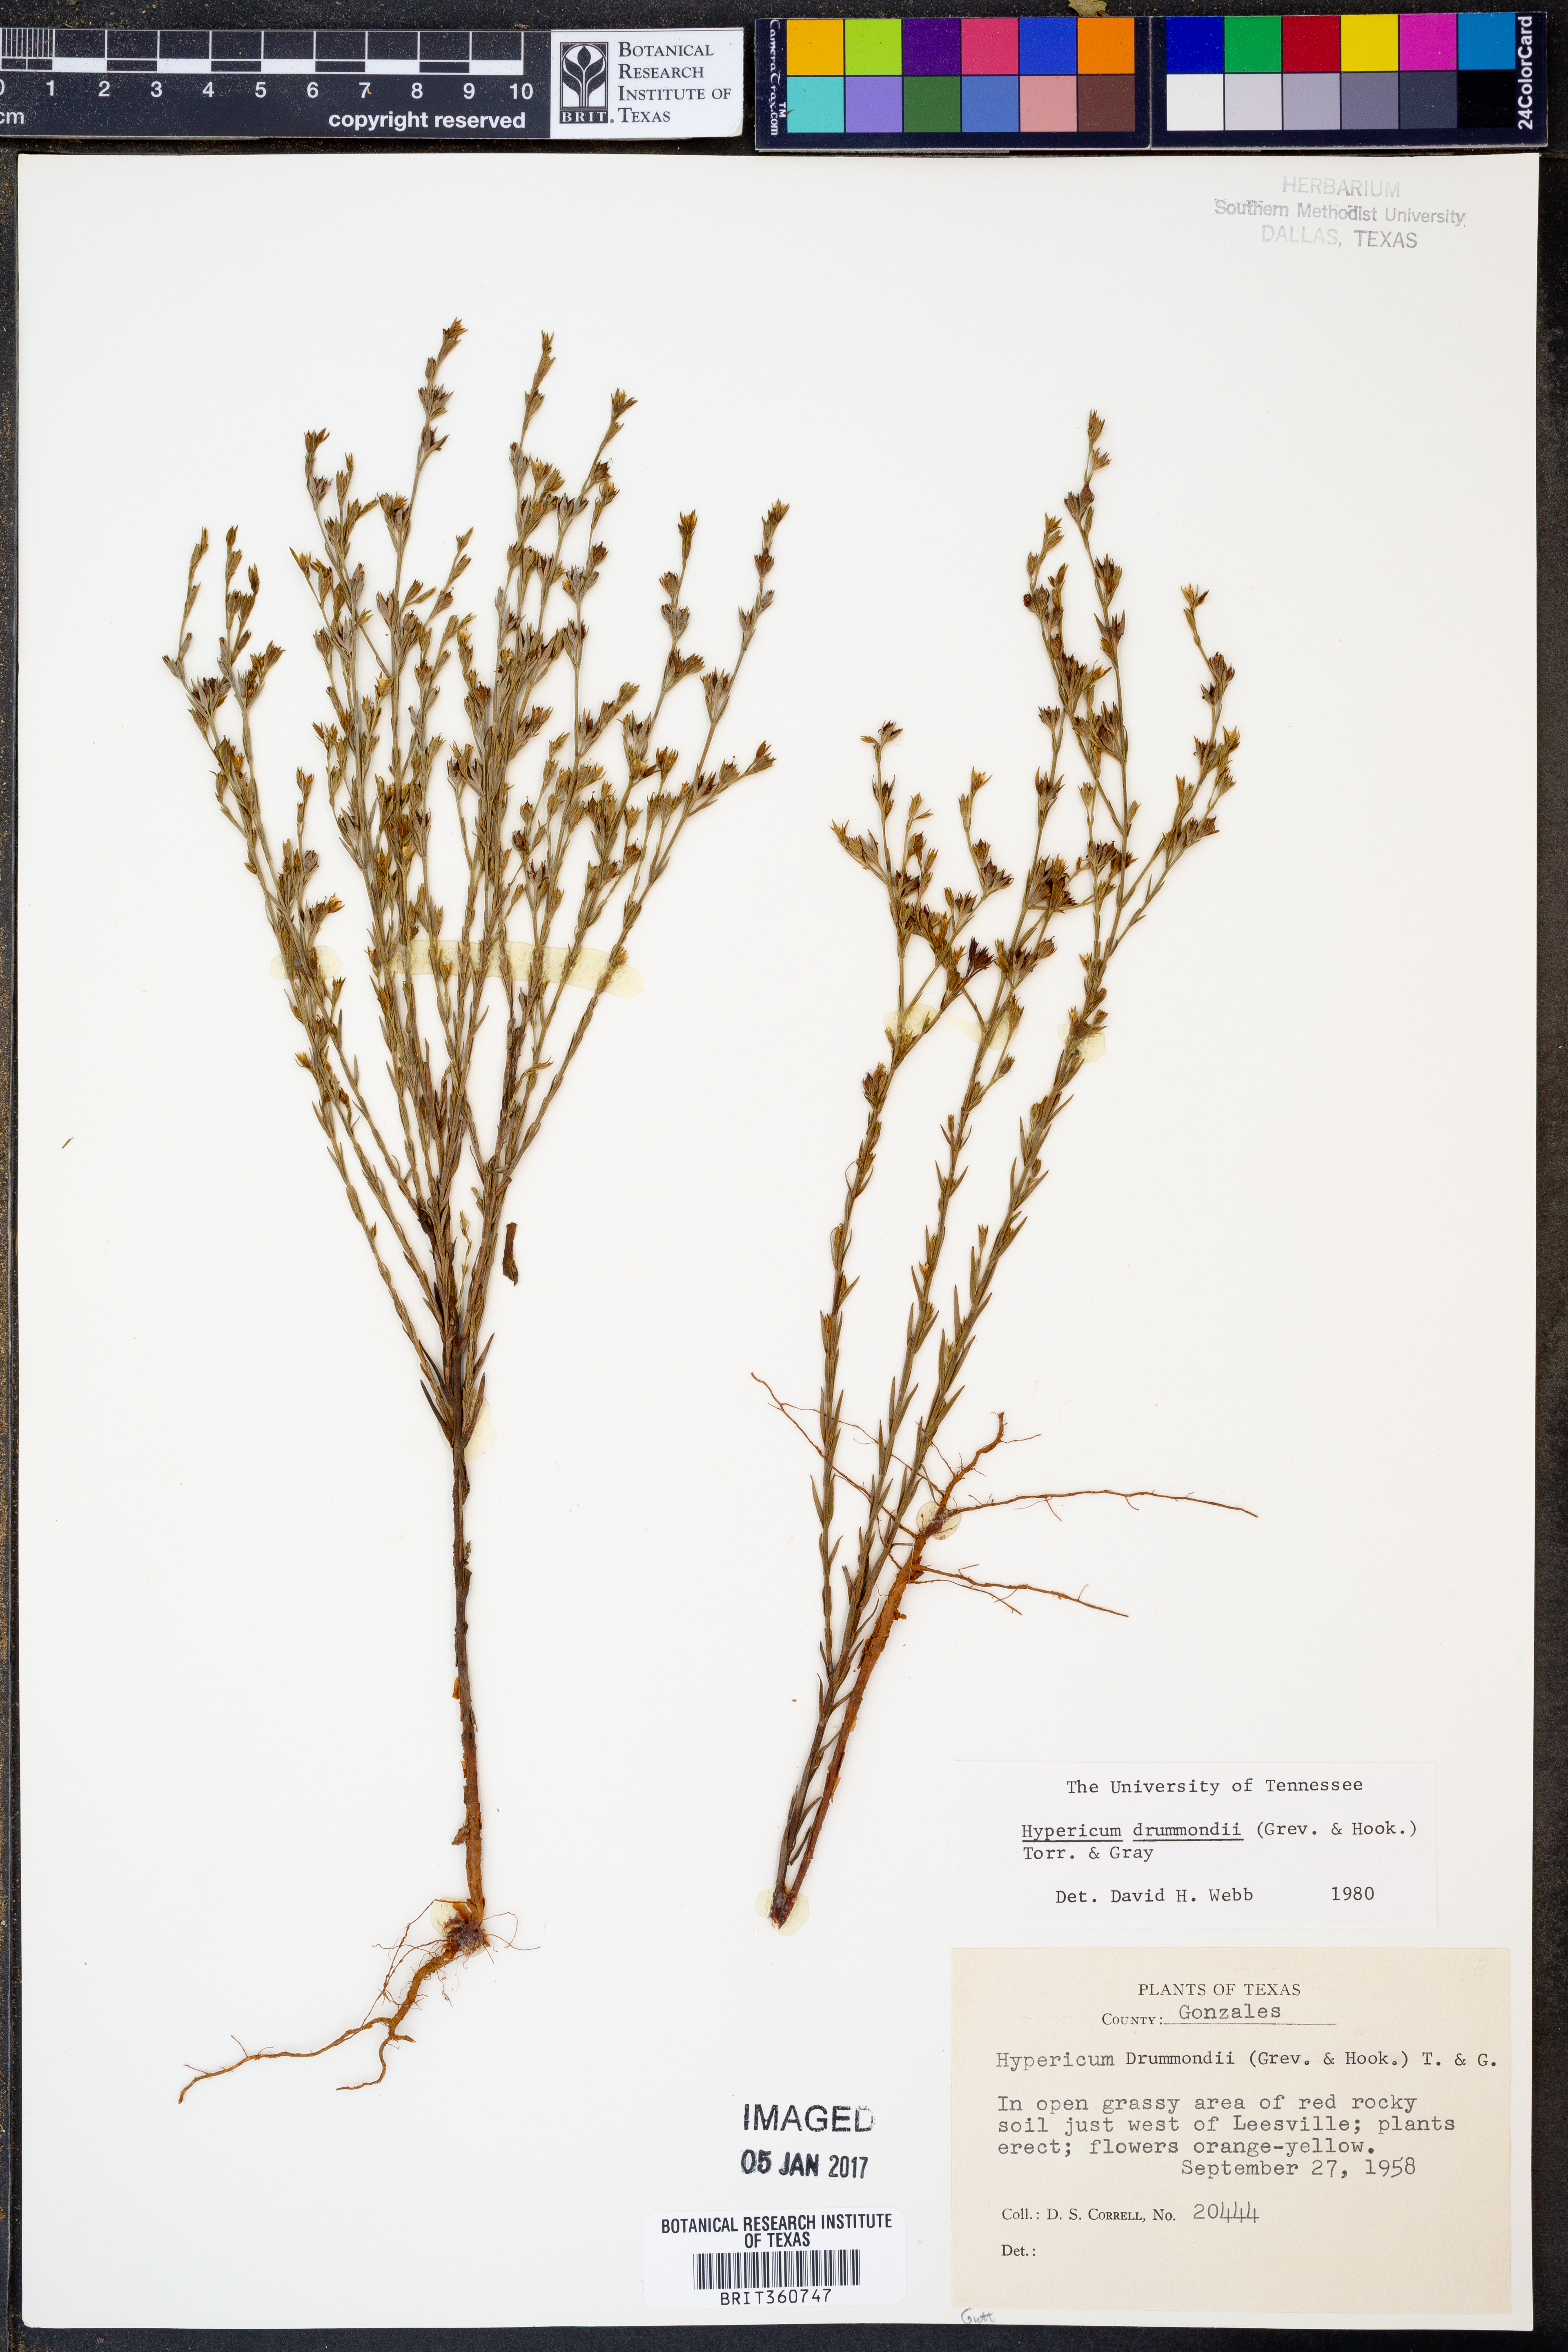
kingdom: Plantae
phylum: Tracheophyta
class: Magnoliopsida
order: Malpighiales
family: Hypericaceae
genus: Hypericum
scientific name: Hypericum drummondii
